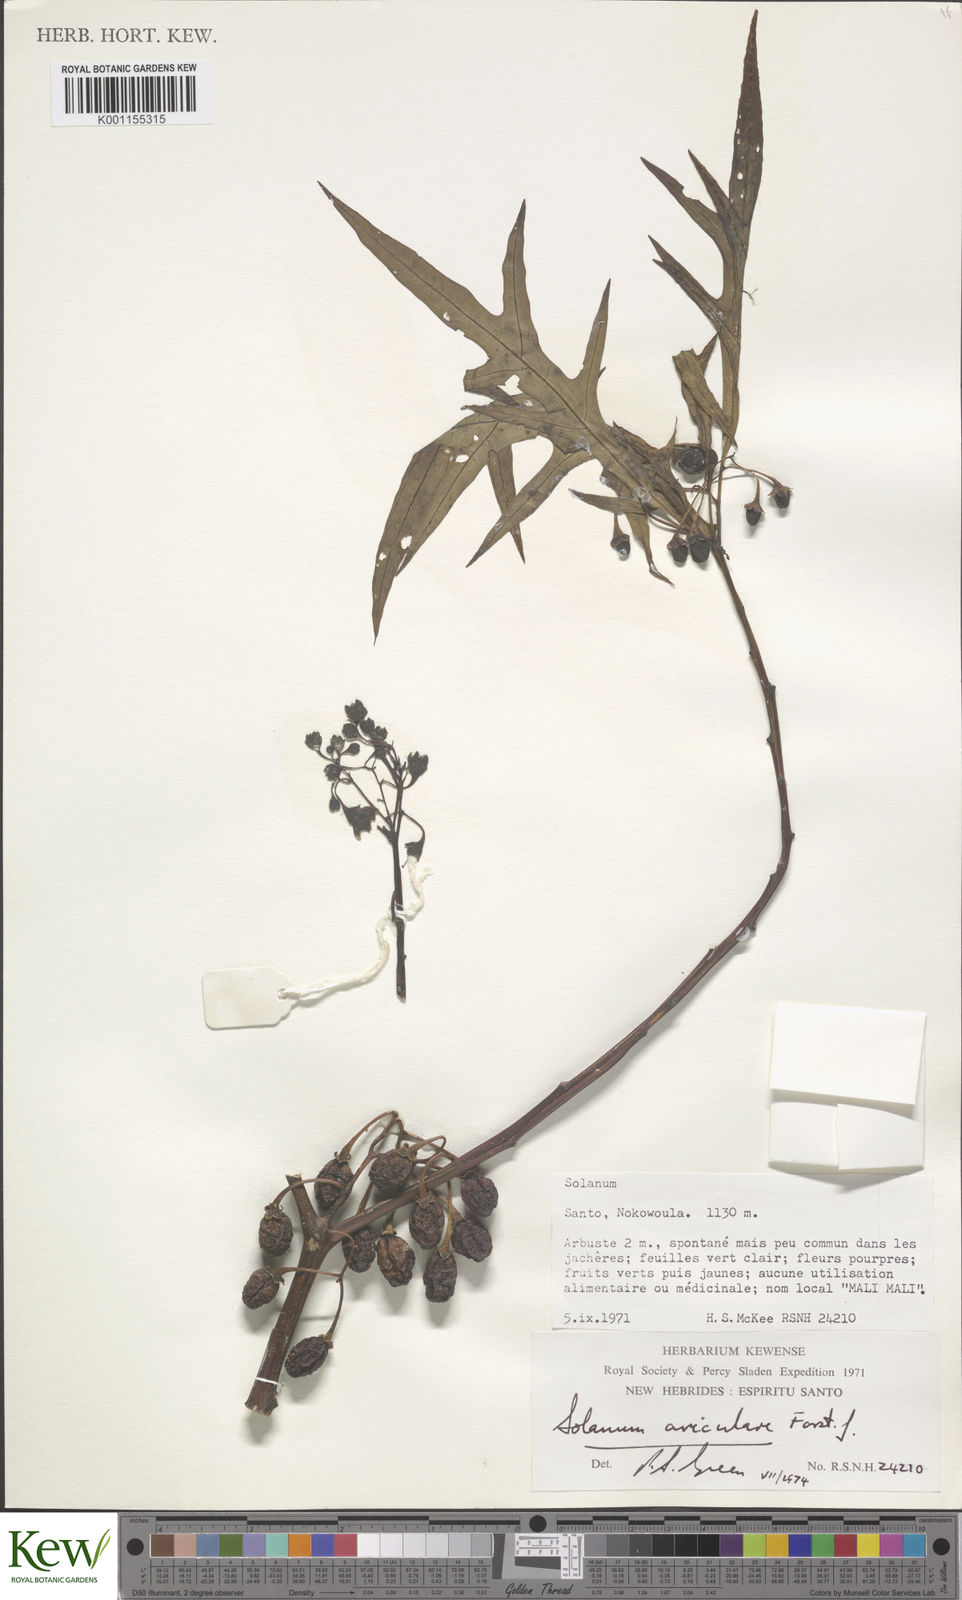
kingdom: Plantae
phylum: Tracheophyta
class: Magnoliopsida
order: Solanales
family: Solanaceae
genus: Solanum
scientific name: Solanum aviculare
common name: New zealand nightshade
